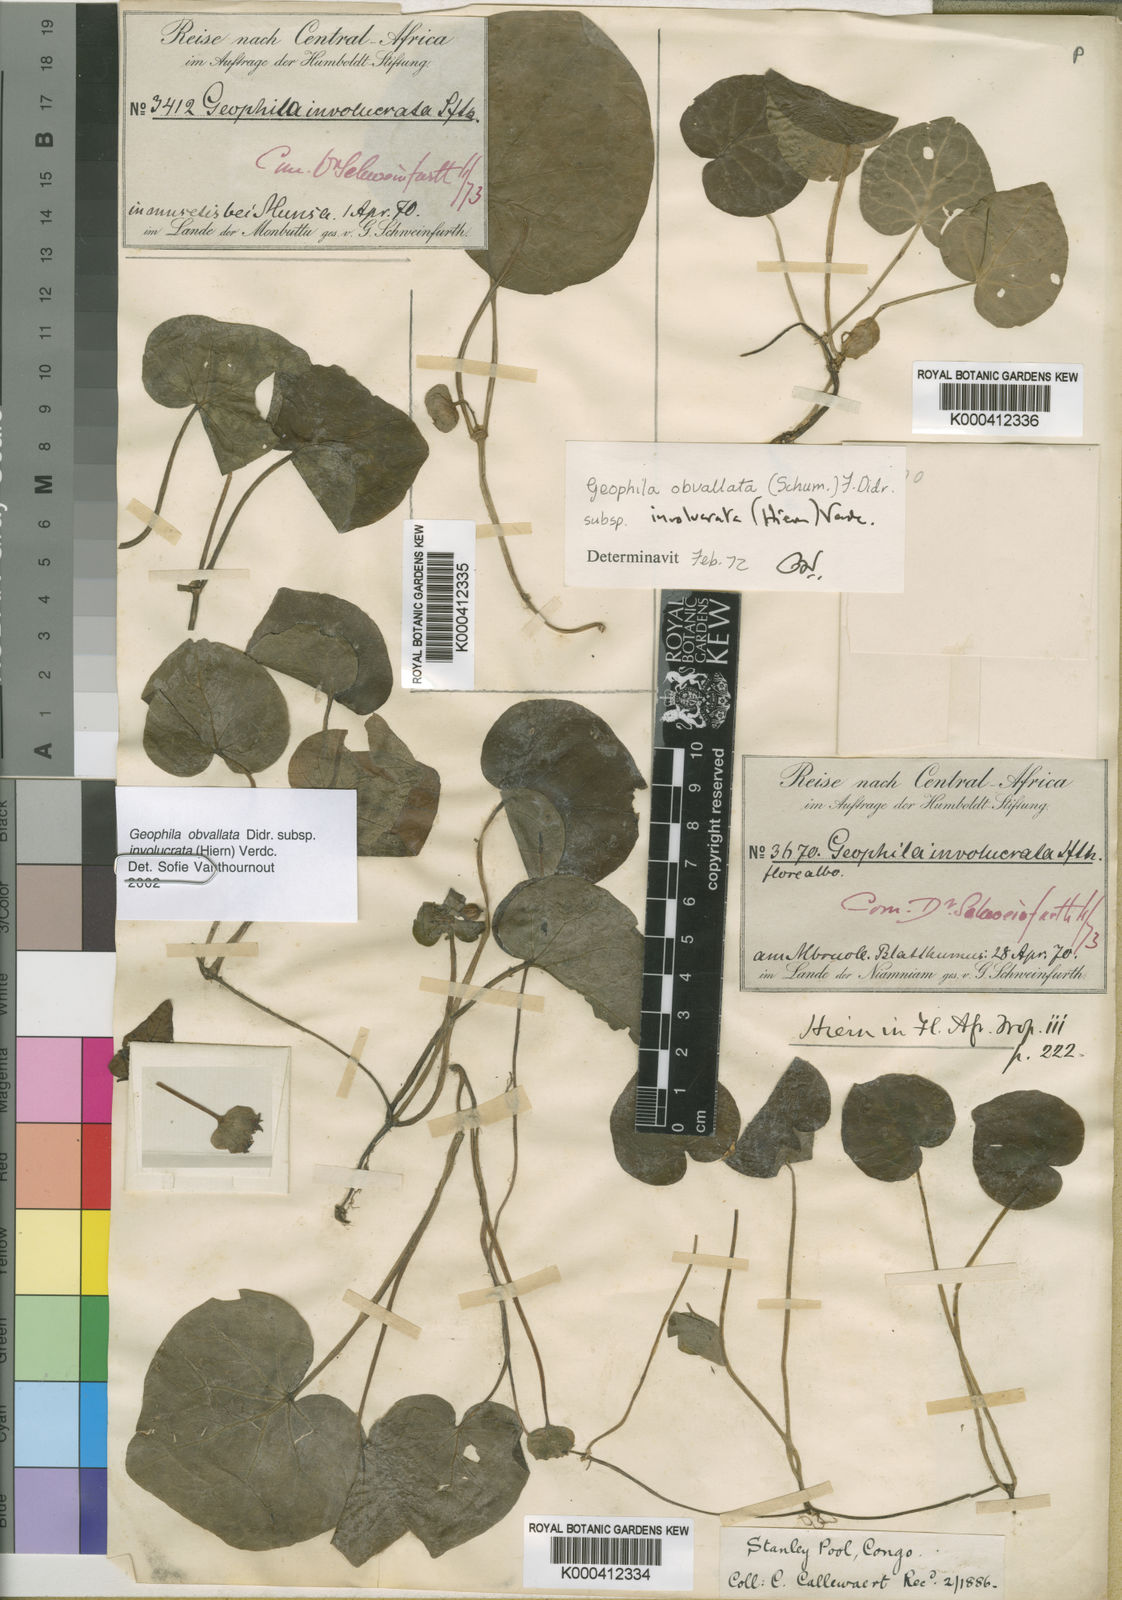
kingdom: Plantae
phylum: Tracheophyta
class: Magnoliopsida
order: Gentianales
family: Rubiaceae
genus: Geophila
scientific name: Geophila obvallata
